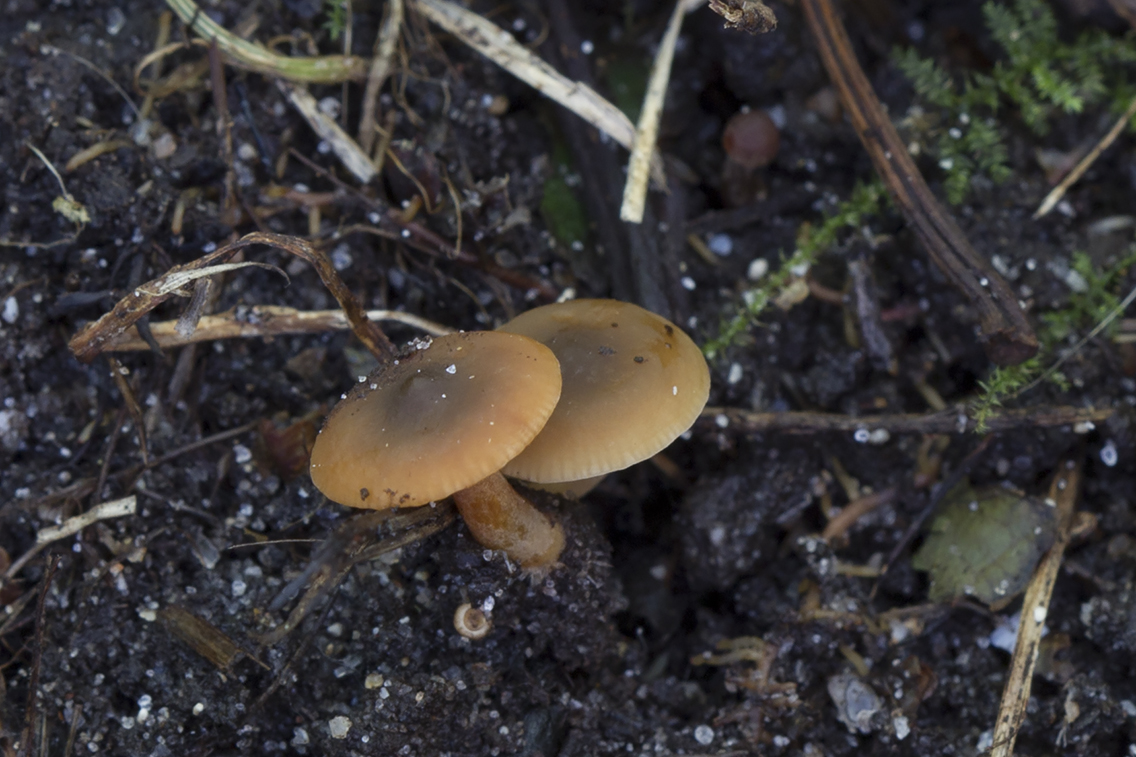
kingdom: Fungi
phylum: Basidiomycota
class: Agaricomycetes
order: Russulales
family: Russulaceae
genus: Lactarius
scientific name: Lactarius
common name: mælkehat
